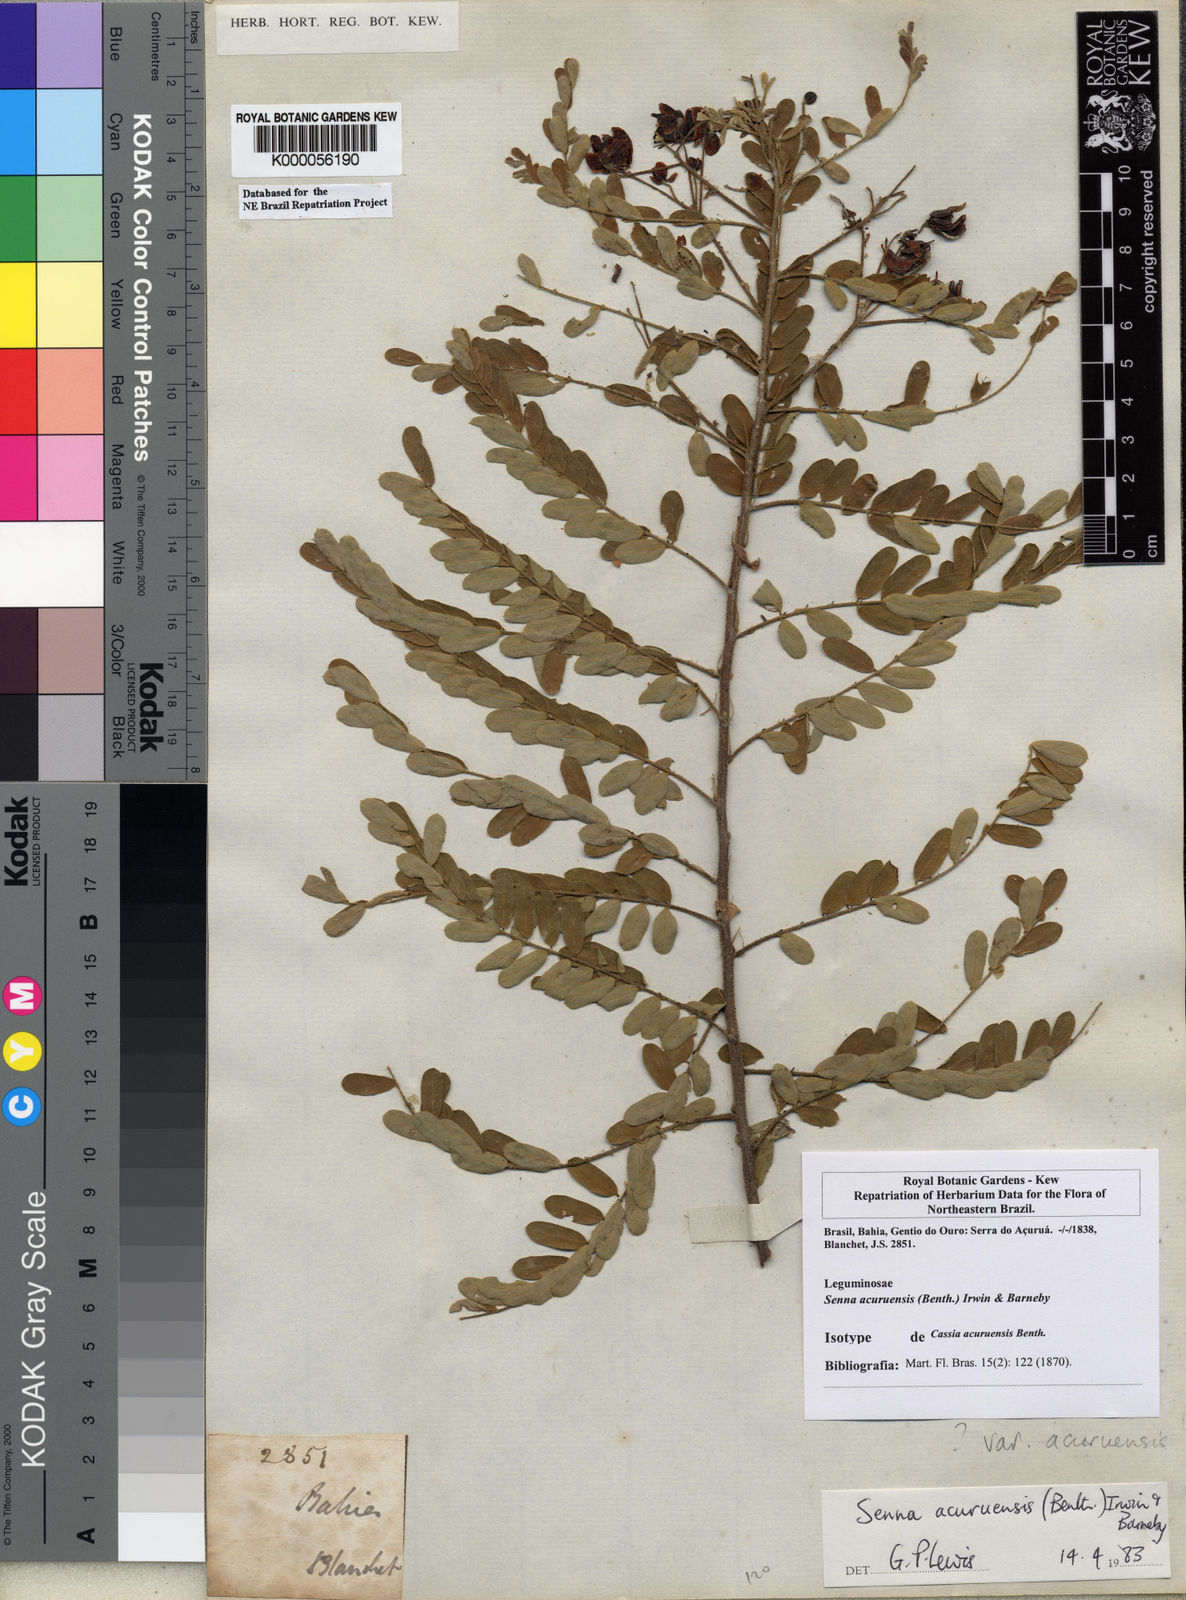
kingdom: Plantae
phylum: Tracheophyta
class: Magnoliopsida
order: Fabales
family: Fabaceae
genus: Senna
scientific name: Senna acuruensis
